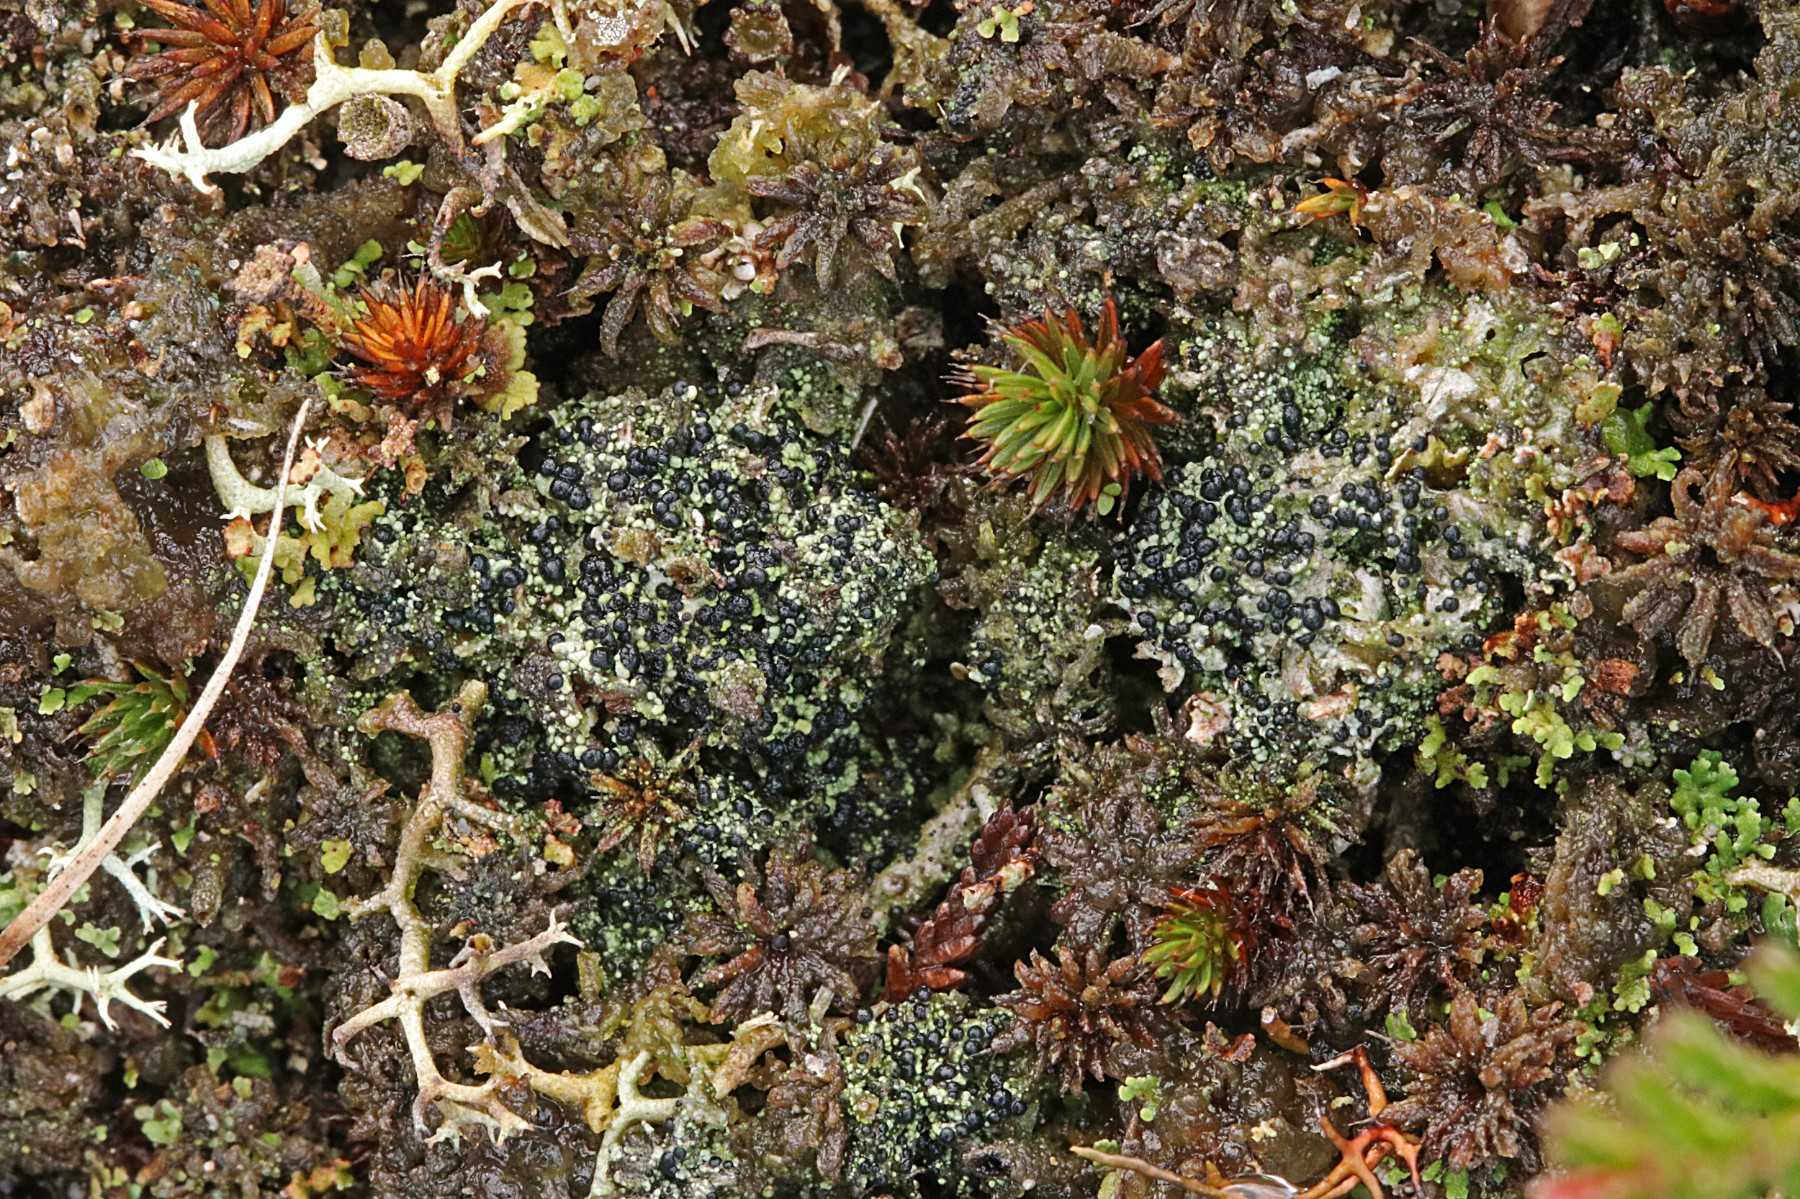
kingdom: Fungi
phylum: Ascomycota
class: Lecanoromycetes
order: Lecanorales
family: Byssolomataceae
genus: Micarea
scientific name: Micarea lignaria
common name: tørve-knaplav
